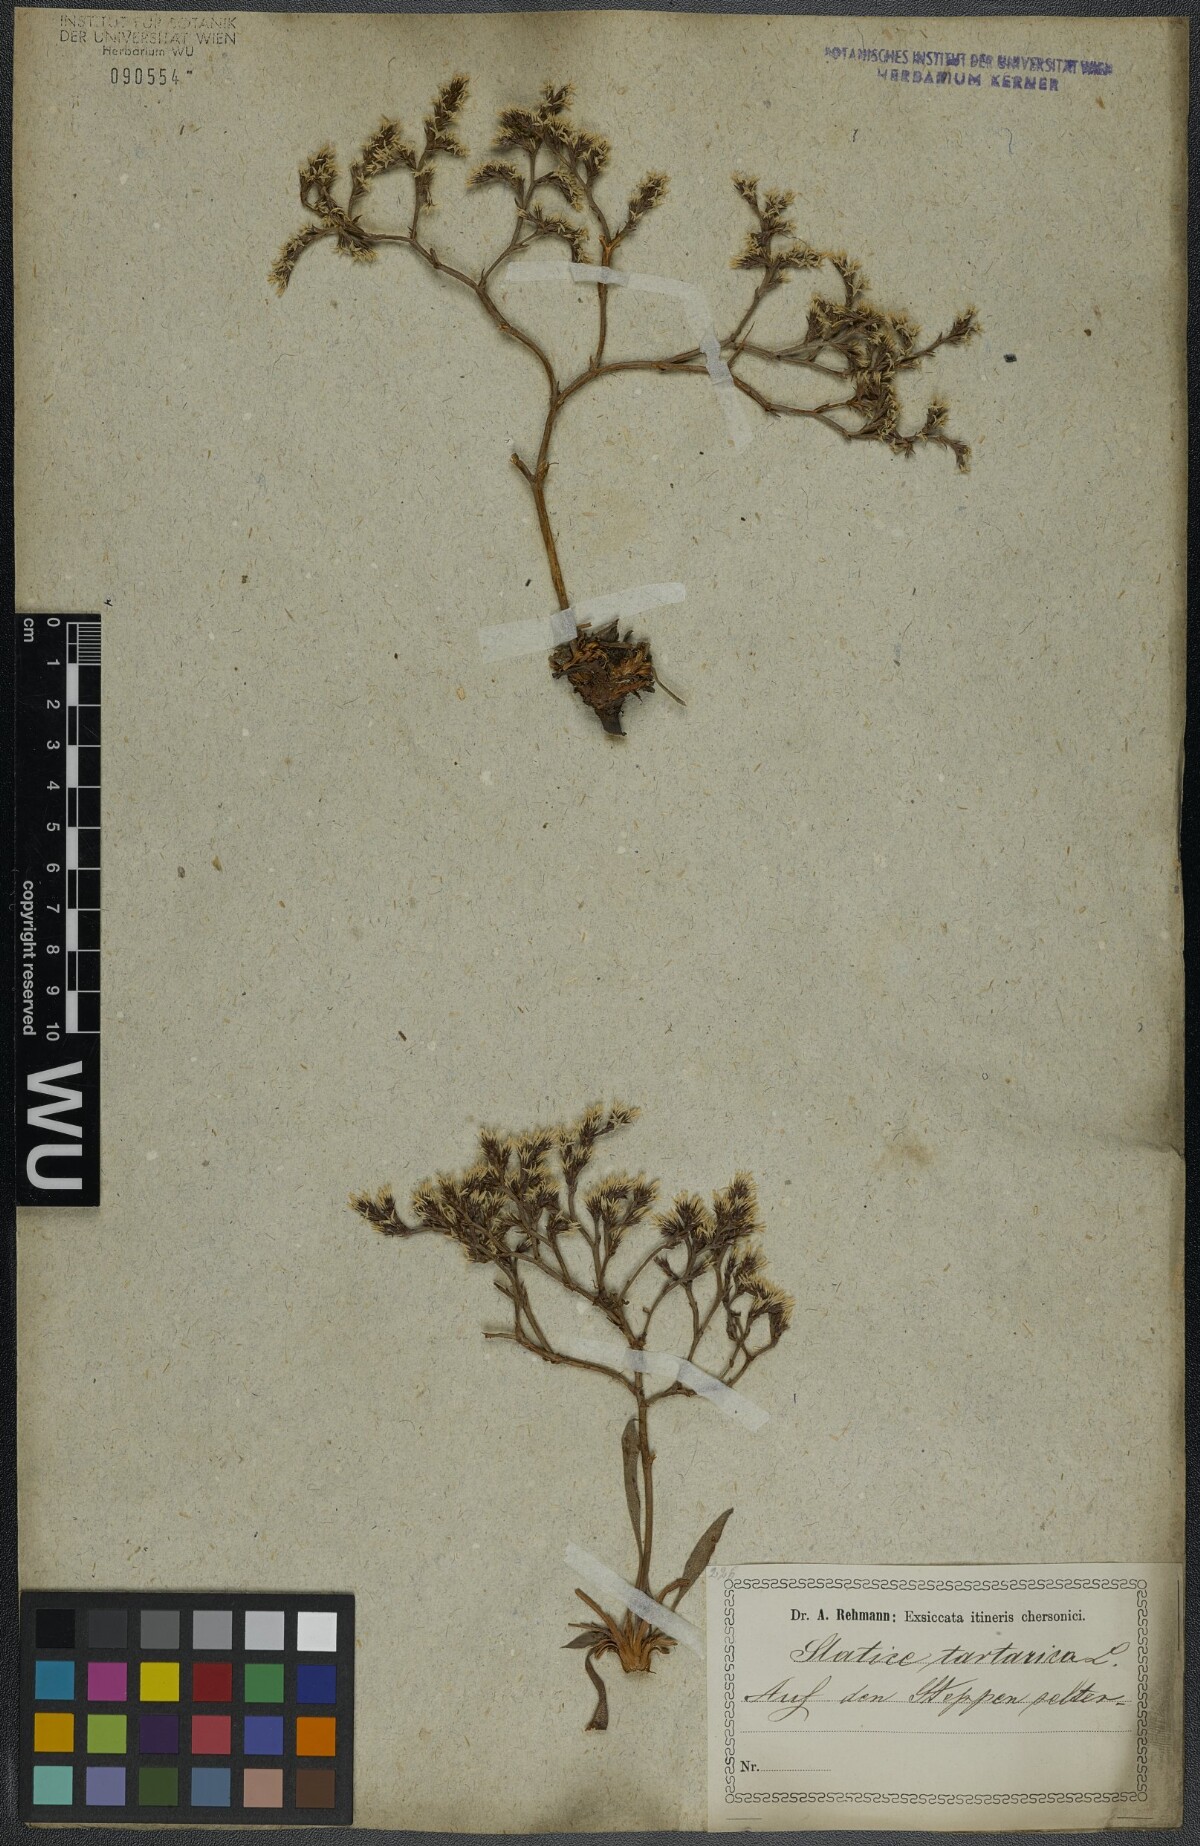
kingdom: Plantae
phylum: Tracheophyta
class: Magnoliopsida
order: Caryophyllales
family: Plumbaginaceae
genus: Goniolimon
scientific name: Goniolimon tataricum
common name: Statice
